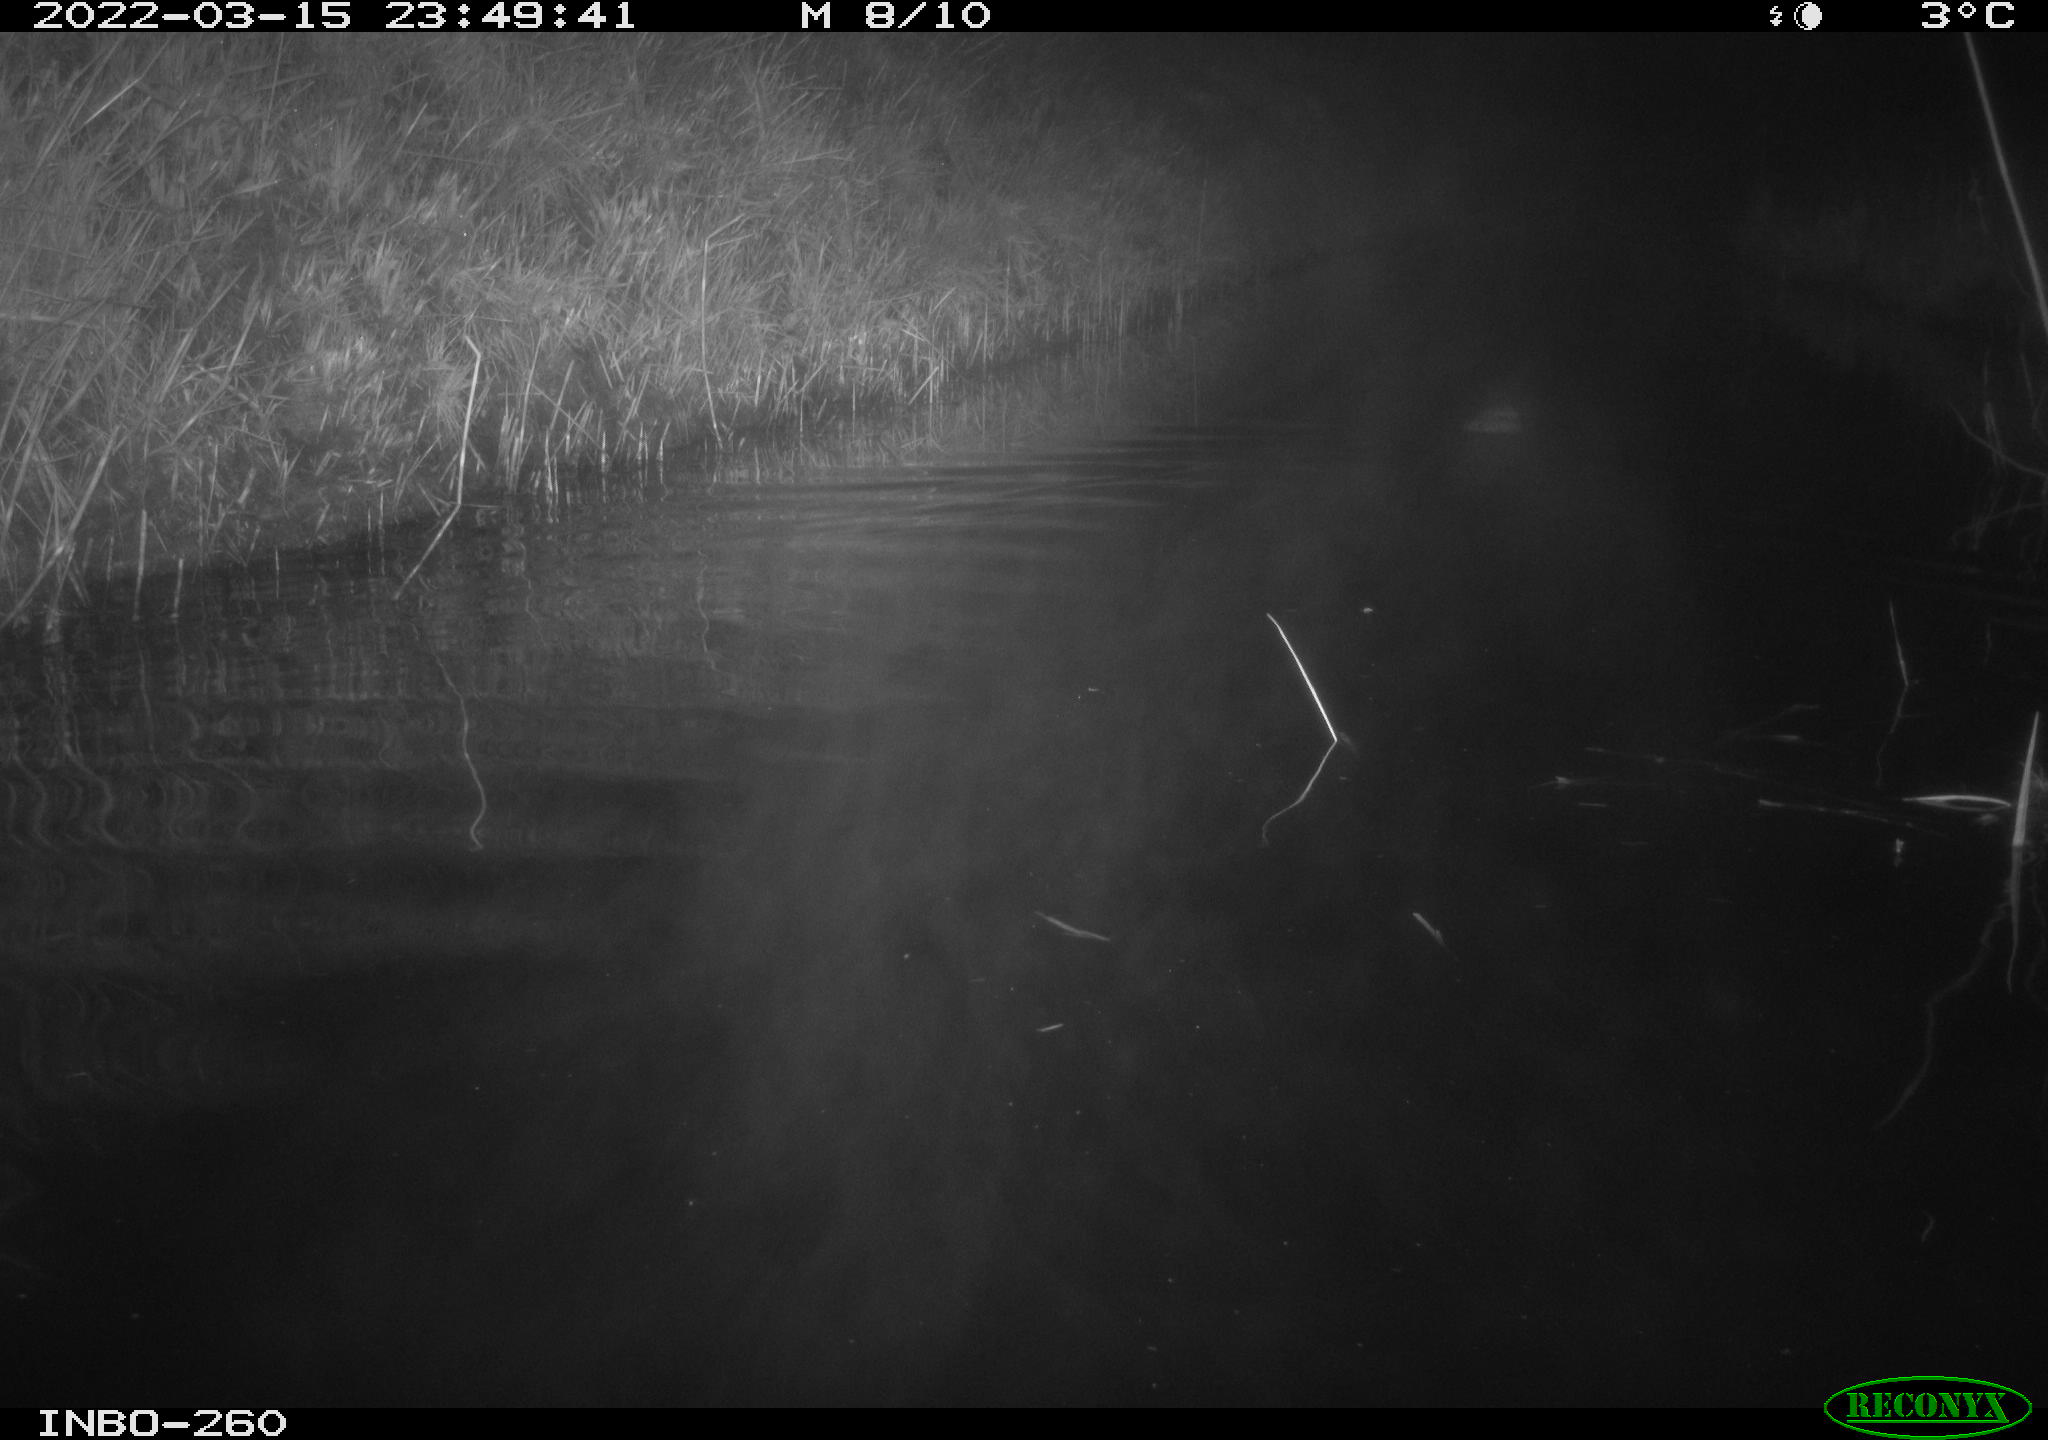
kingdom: Animalia
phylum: Chordata
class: Mammalia
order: Rodentia
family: Cricetidae
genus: Ondatra
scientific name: Ondatra zibethicus
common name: Muskrat
